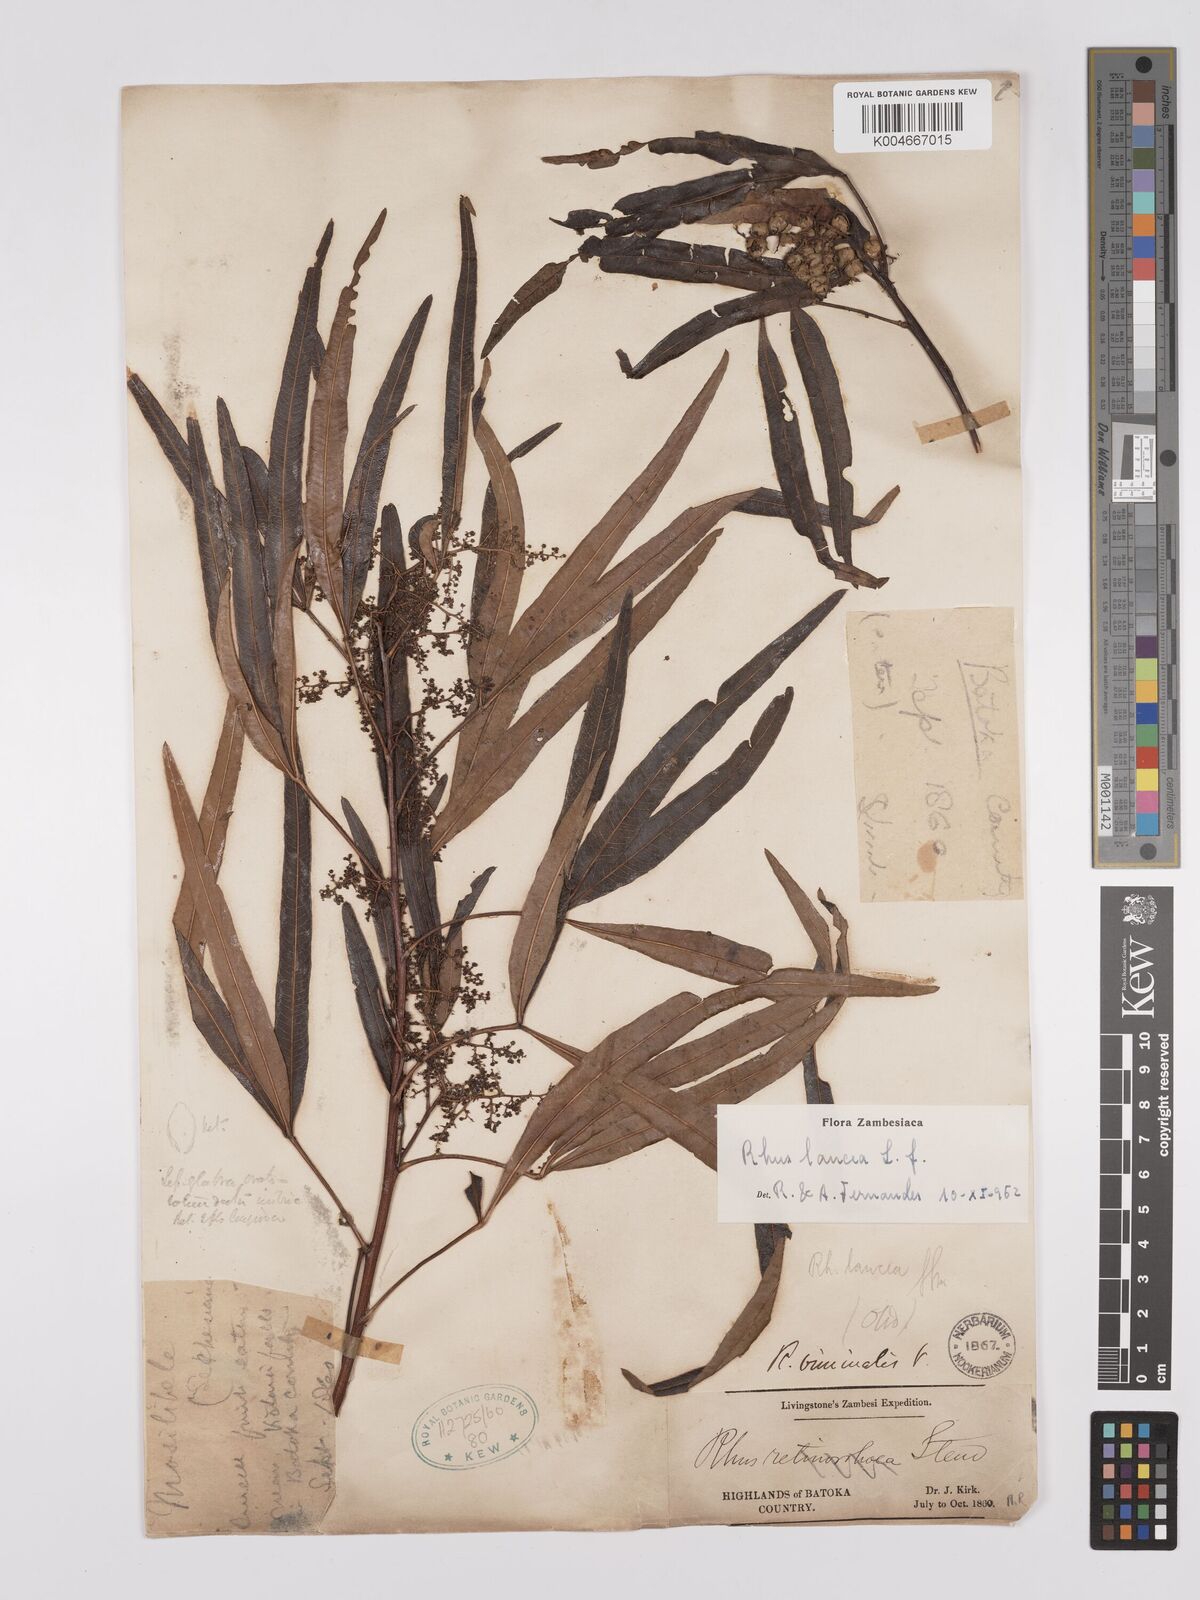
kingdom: Plantae
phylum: Tracheophyta
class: Magnoliopsida
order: Sapindales
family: Anacardiaceae
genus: Searsia
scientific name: Searsia lancea
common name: Cashew
